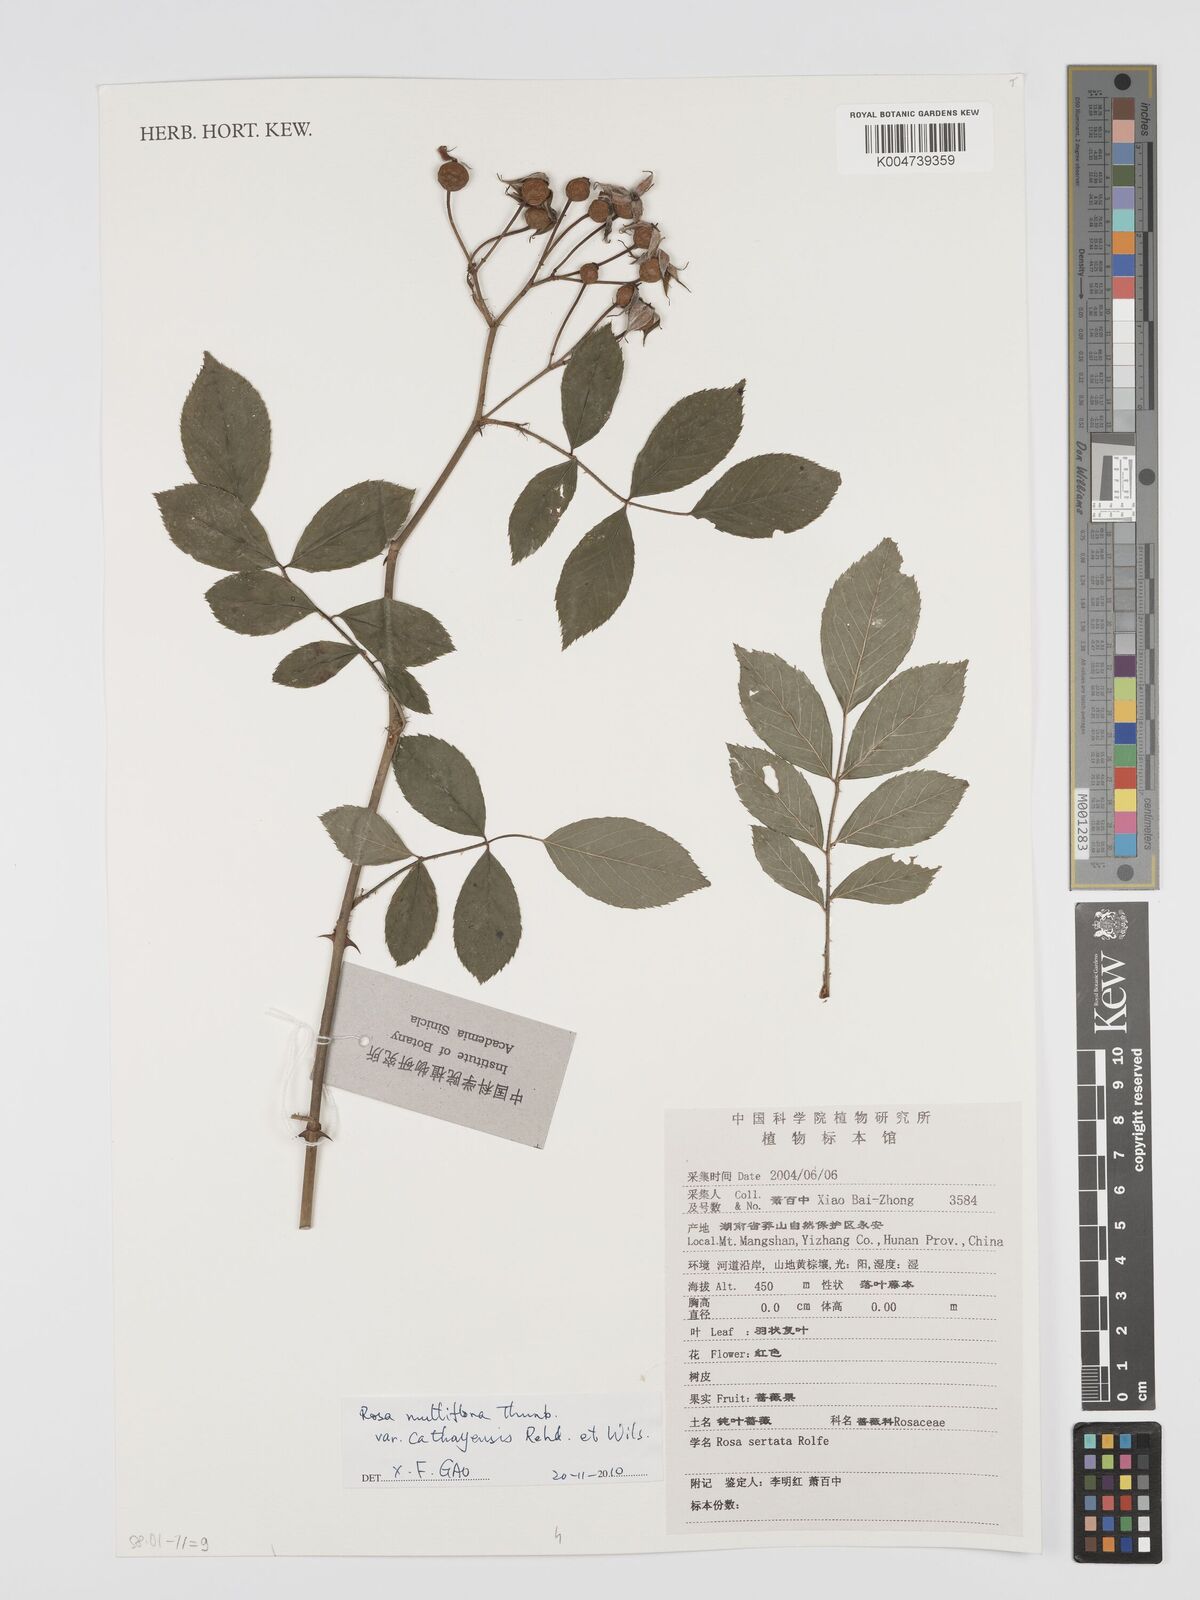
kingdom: Plantae
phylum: Tracheophyta
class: Magnoliopsida
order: Rosales
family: Rosaceae
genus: Rosa
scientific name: Rosa
